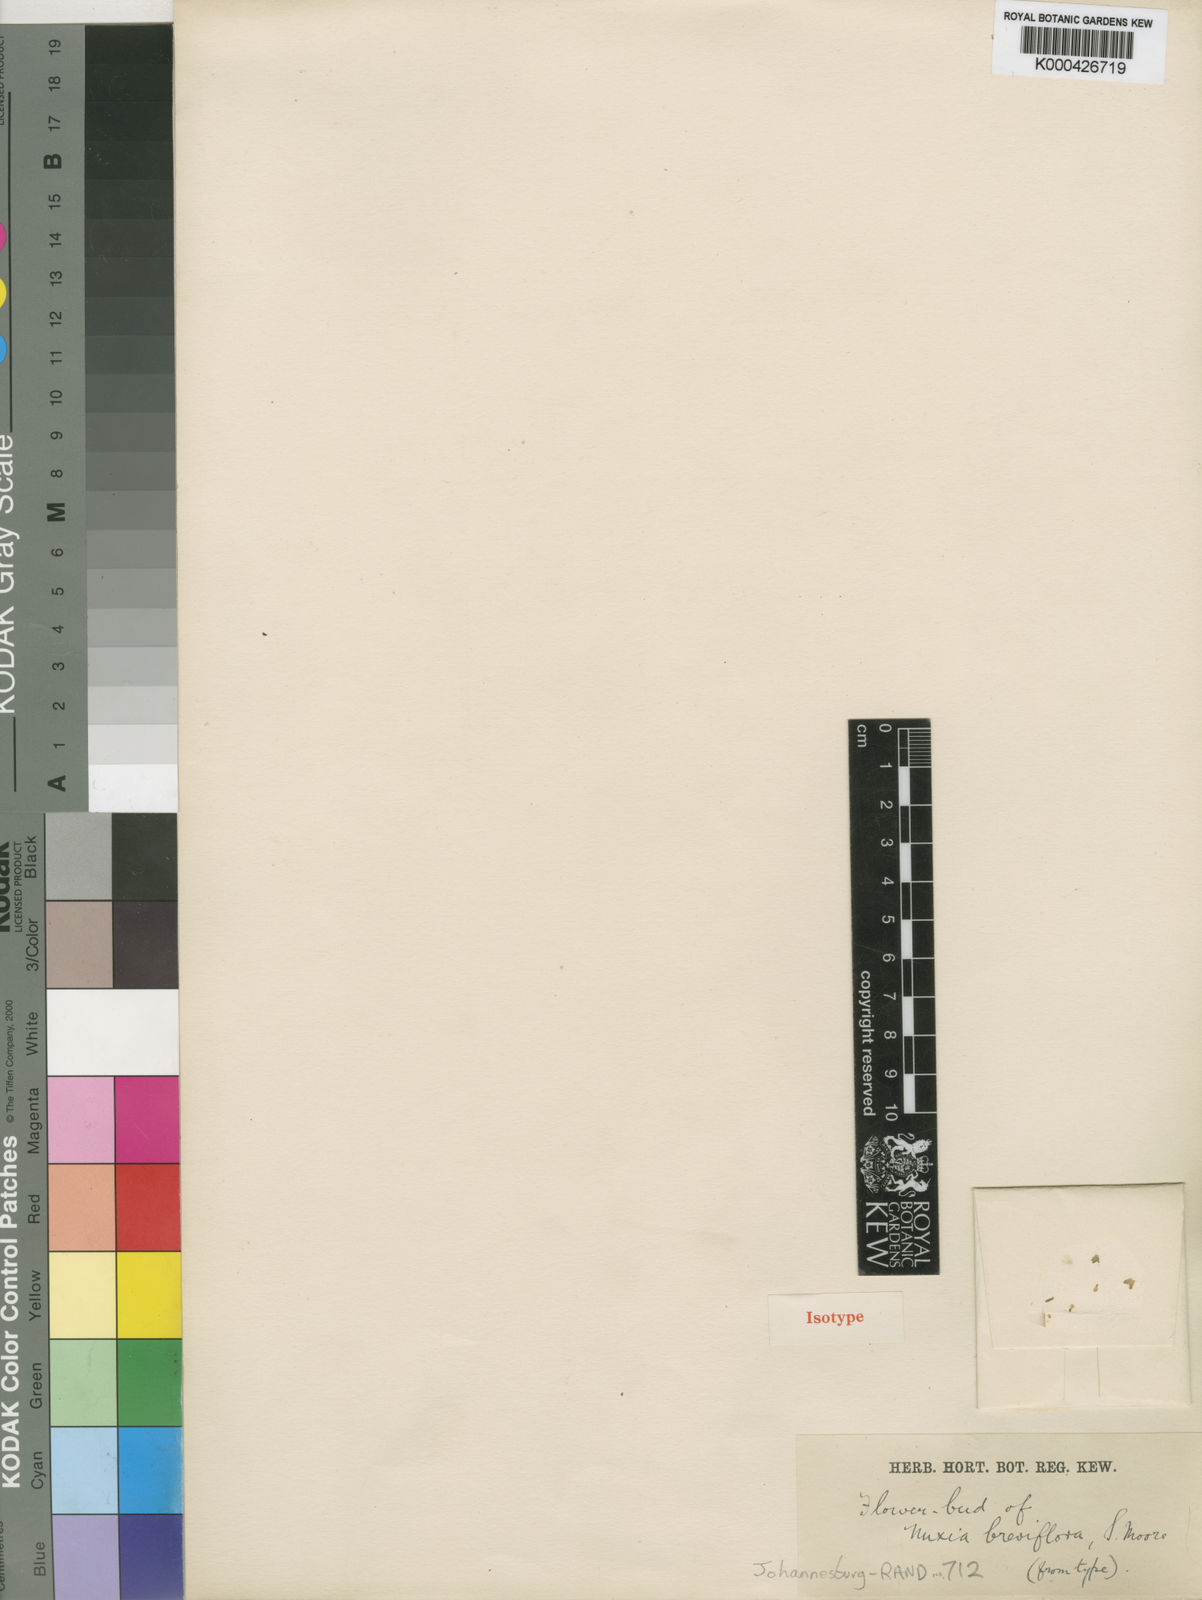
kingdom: Plantae
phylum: Tracheophyta
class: Magnoliopsida
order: Lamiales
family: Stilbaceae
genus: Nuxia
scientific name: Nuxia congesta
